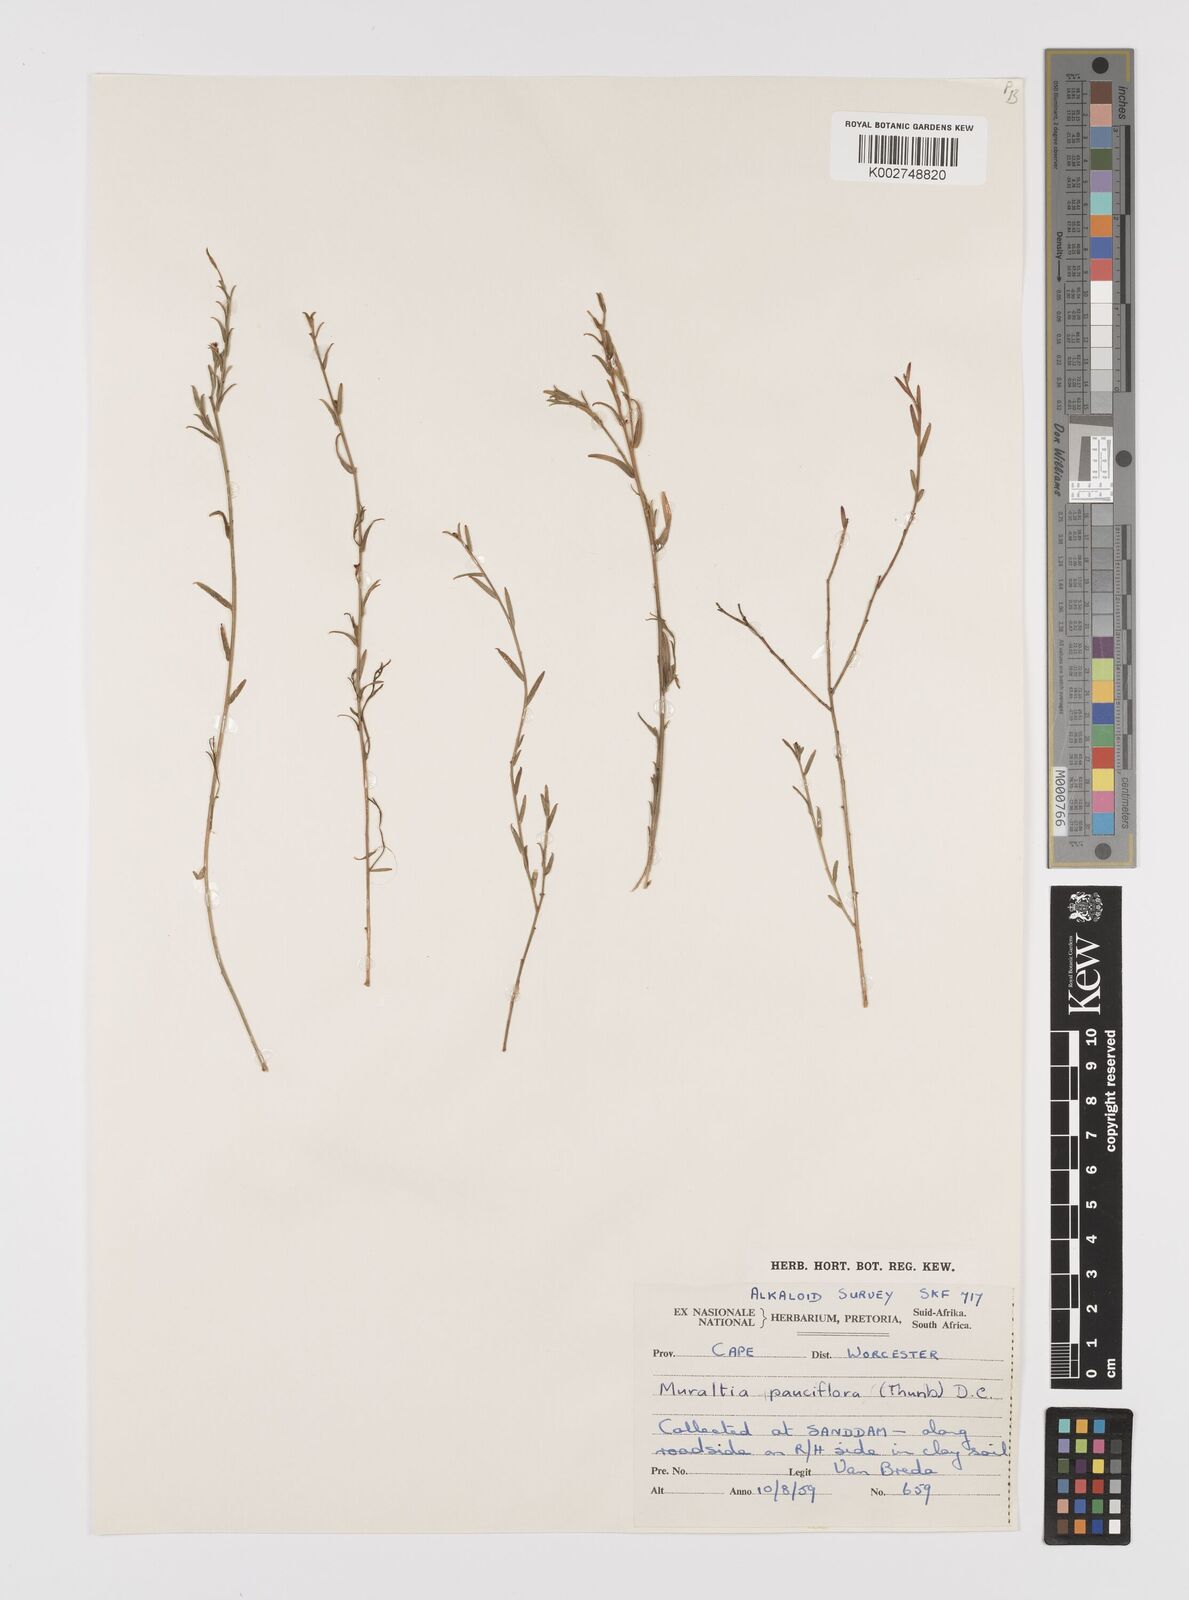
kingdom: Plantae
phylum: Tracheophyta
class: Magnoliopsida
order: Fabales
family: Polygalaceae
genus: Muraltia
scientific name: Muraltia pauciflora
